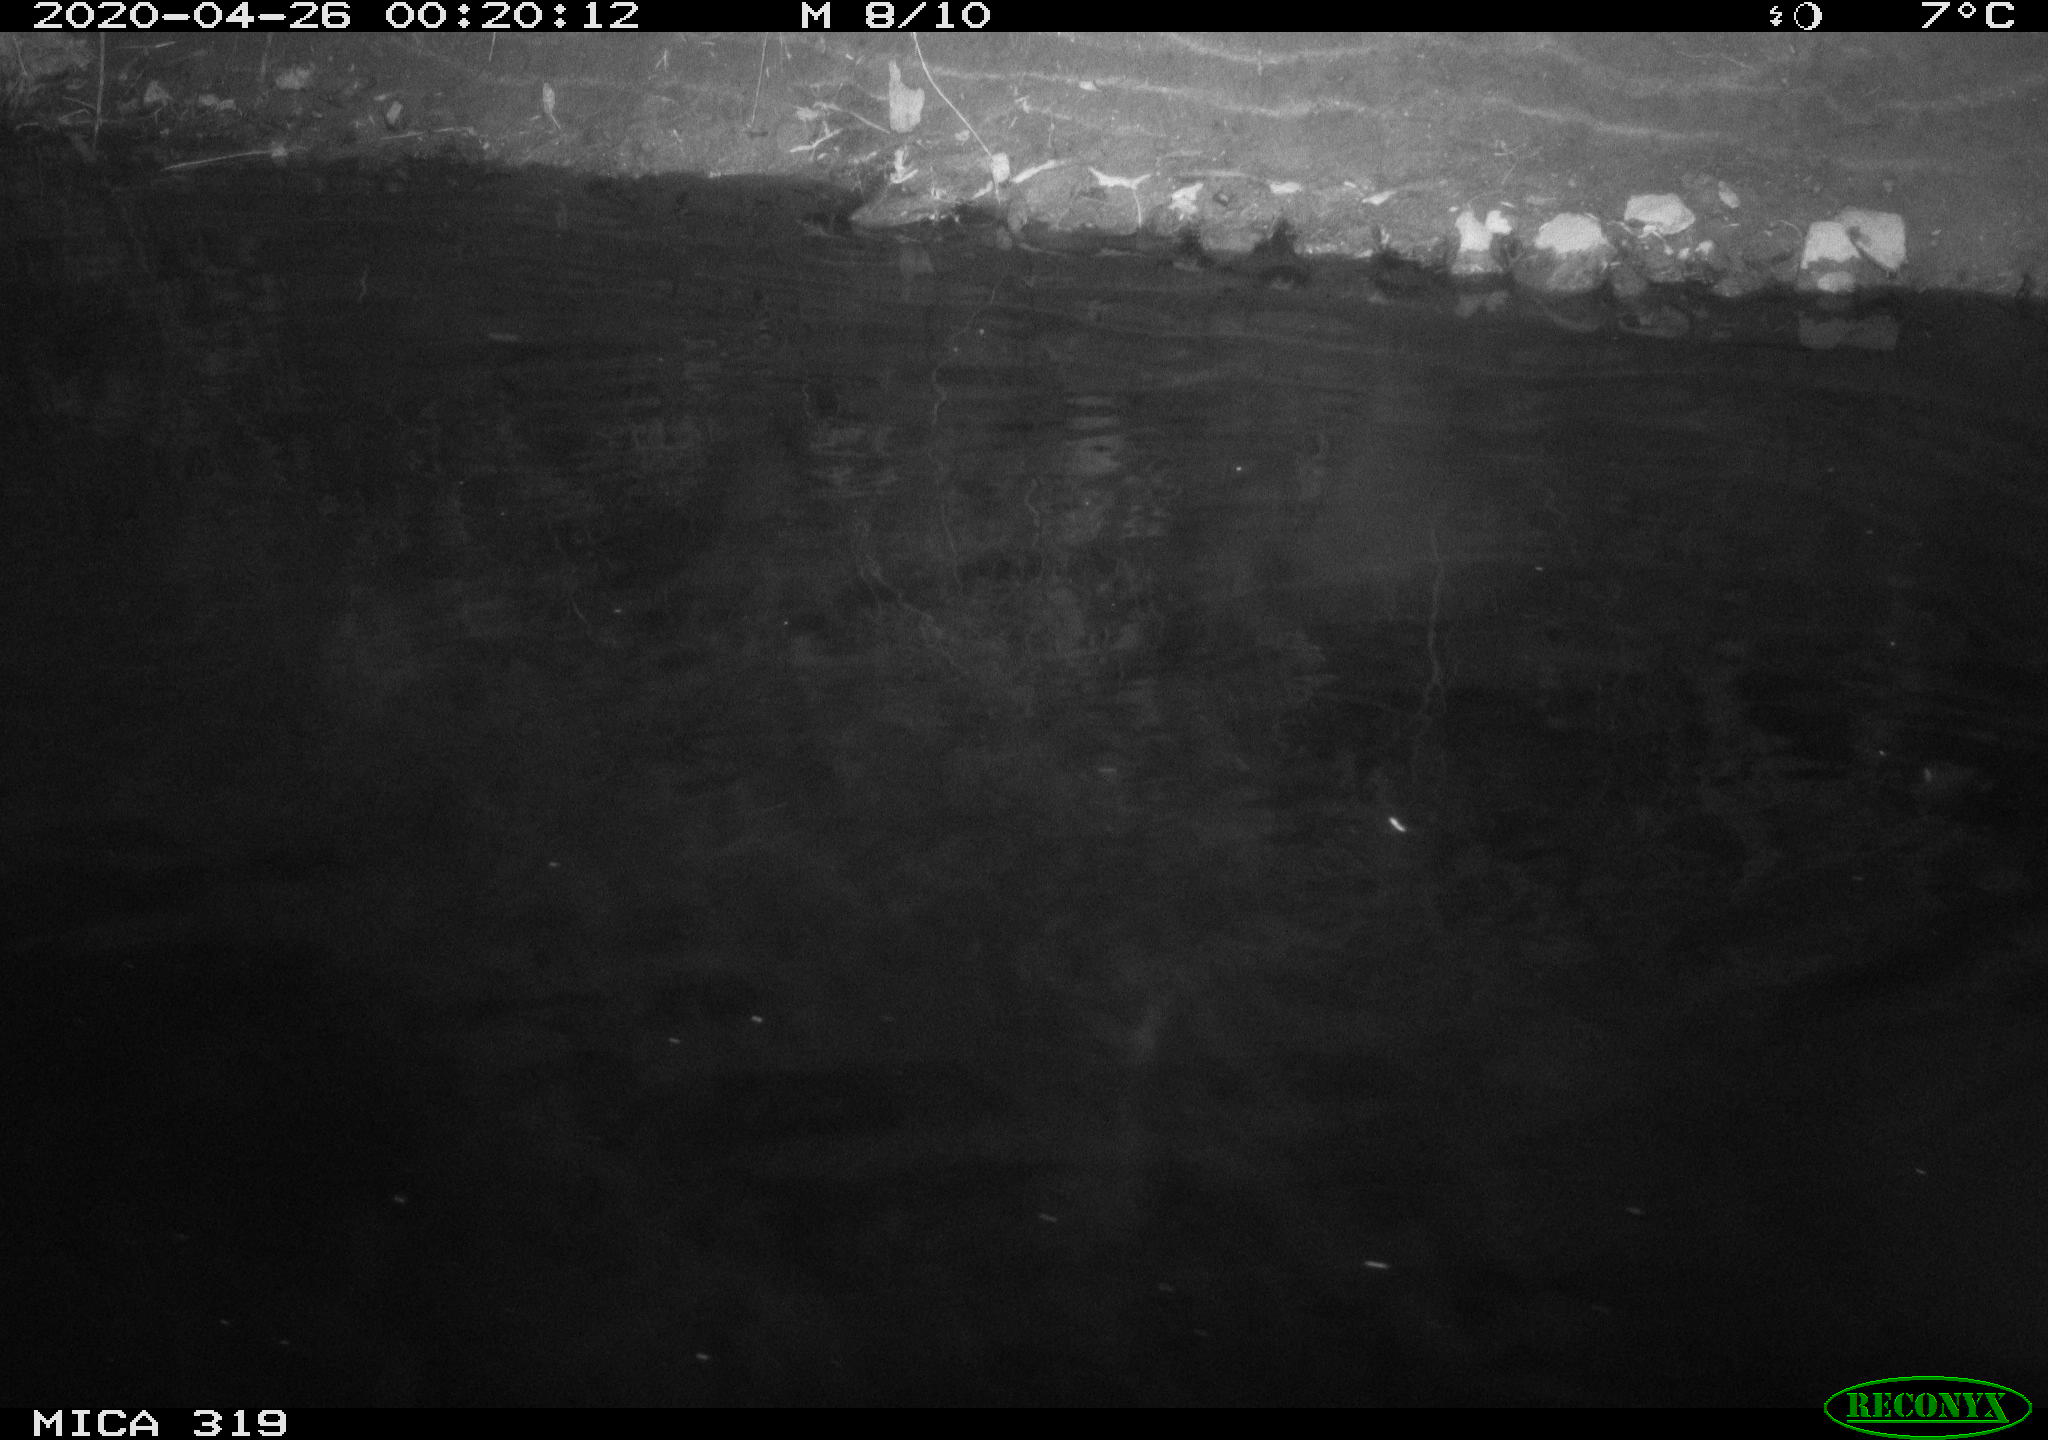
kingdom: Animalia
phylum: Chordata
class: Aves
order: Anseriformes
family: Anatidae
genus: Anas
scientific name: Anas platyrhynchos
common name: Mallard
